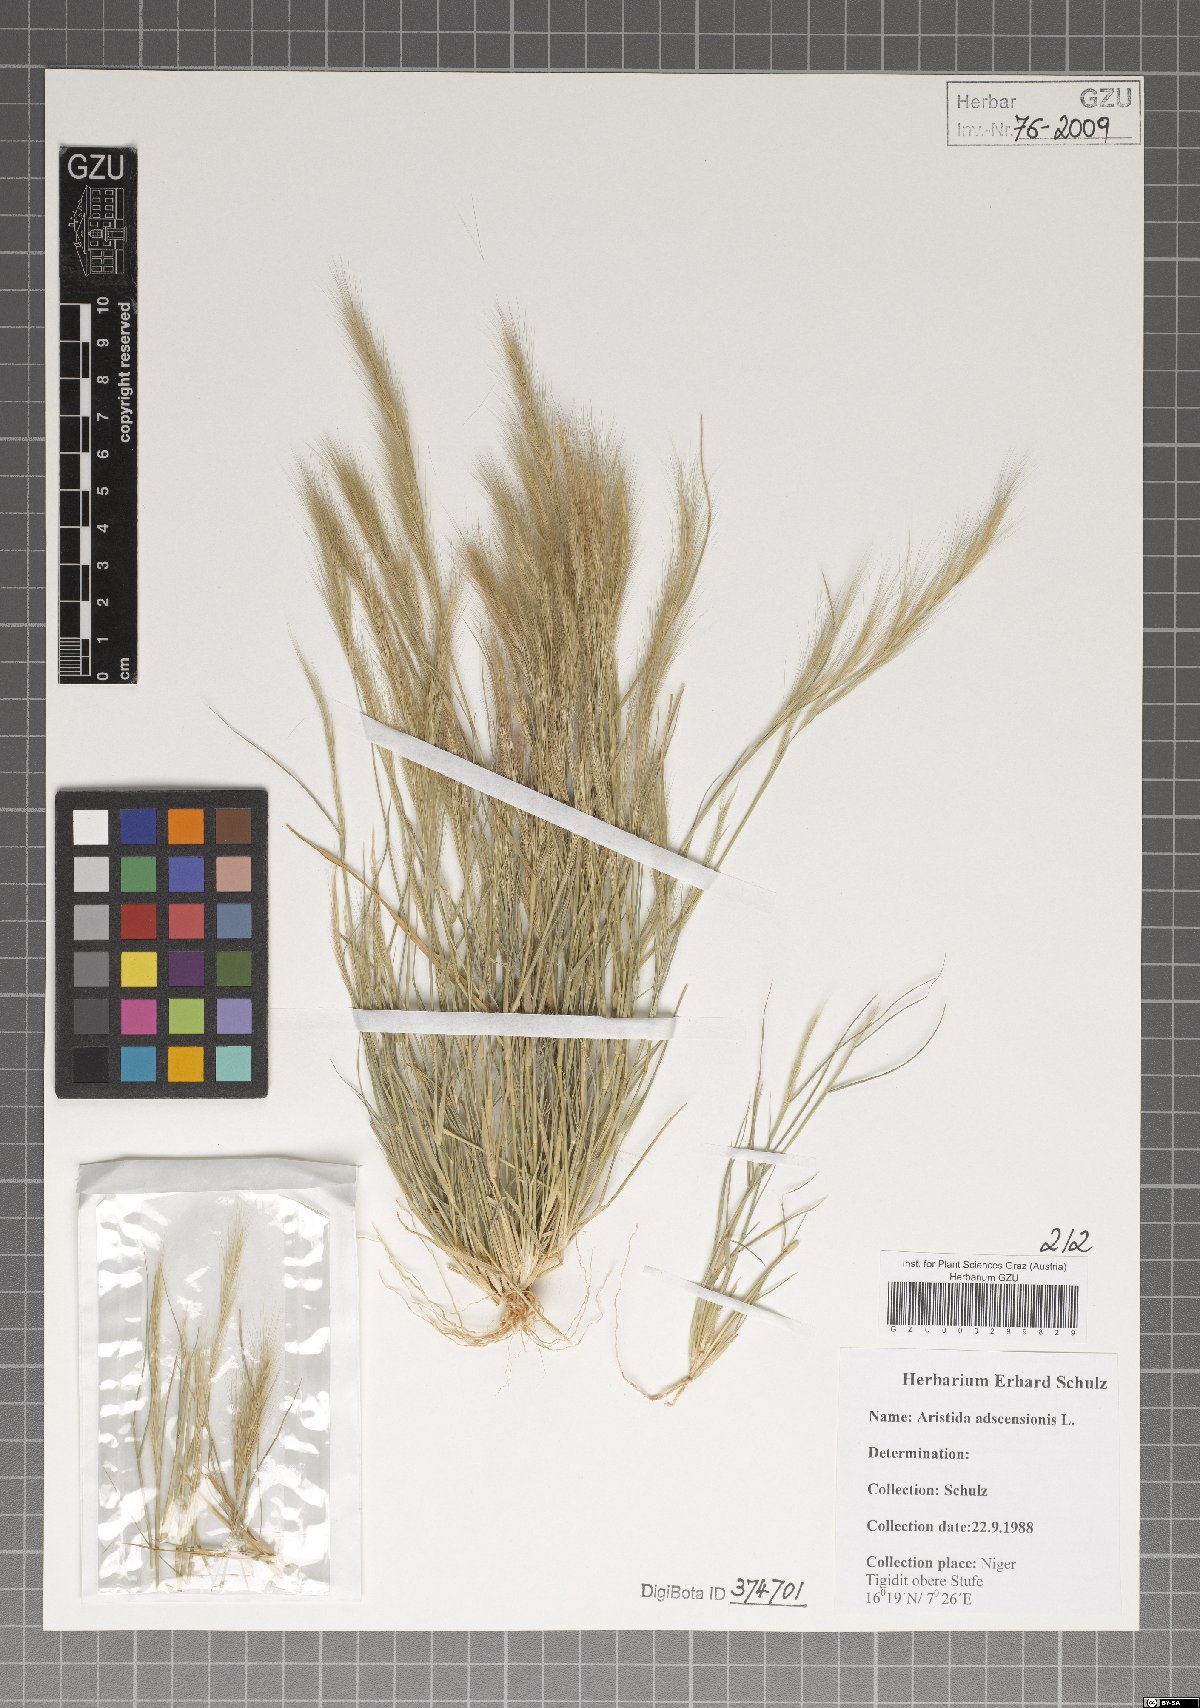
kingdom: Plantae
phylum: Tracheophyta
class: Liliopsida
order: Poales
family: Poaceae
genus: Aristida
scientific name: Aristida adscensionis
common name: Sixweeks threeawn
